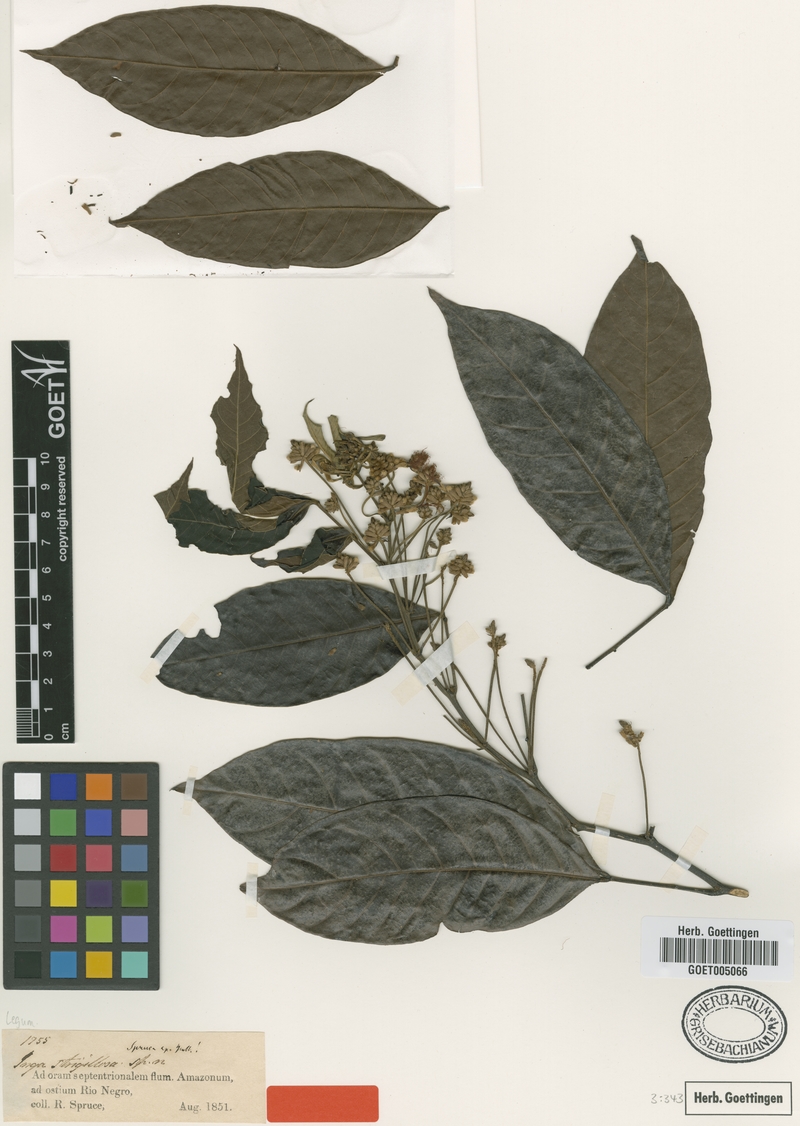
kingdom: Plantae
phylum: Tracheophyta
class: Magnoliopsida
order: Fabales
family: Fabaceae
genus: Inga
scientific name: Inga punctata
